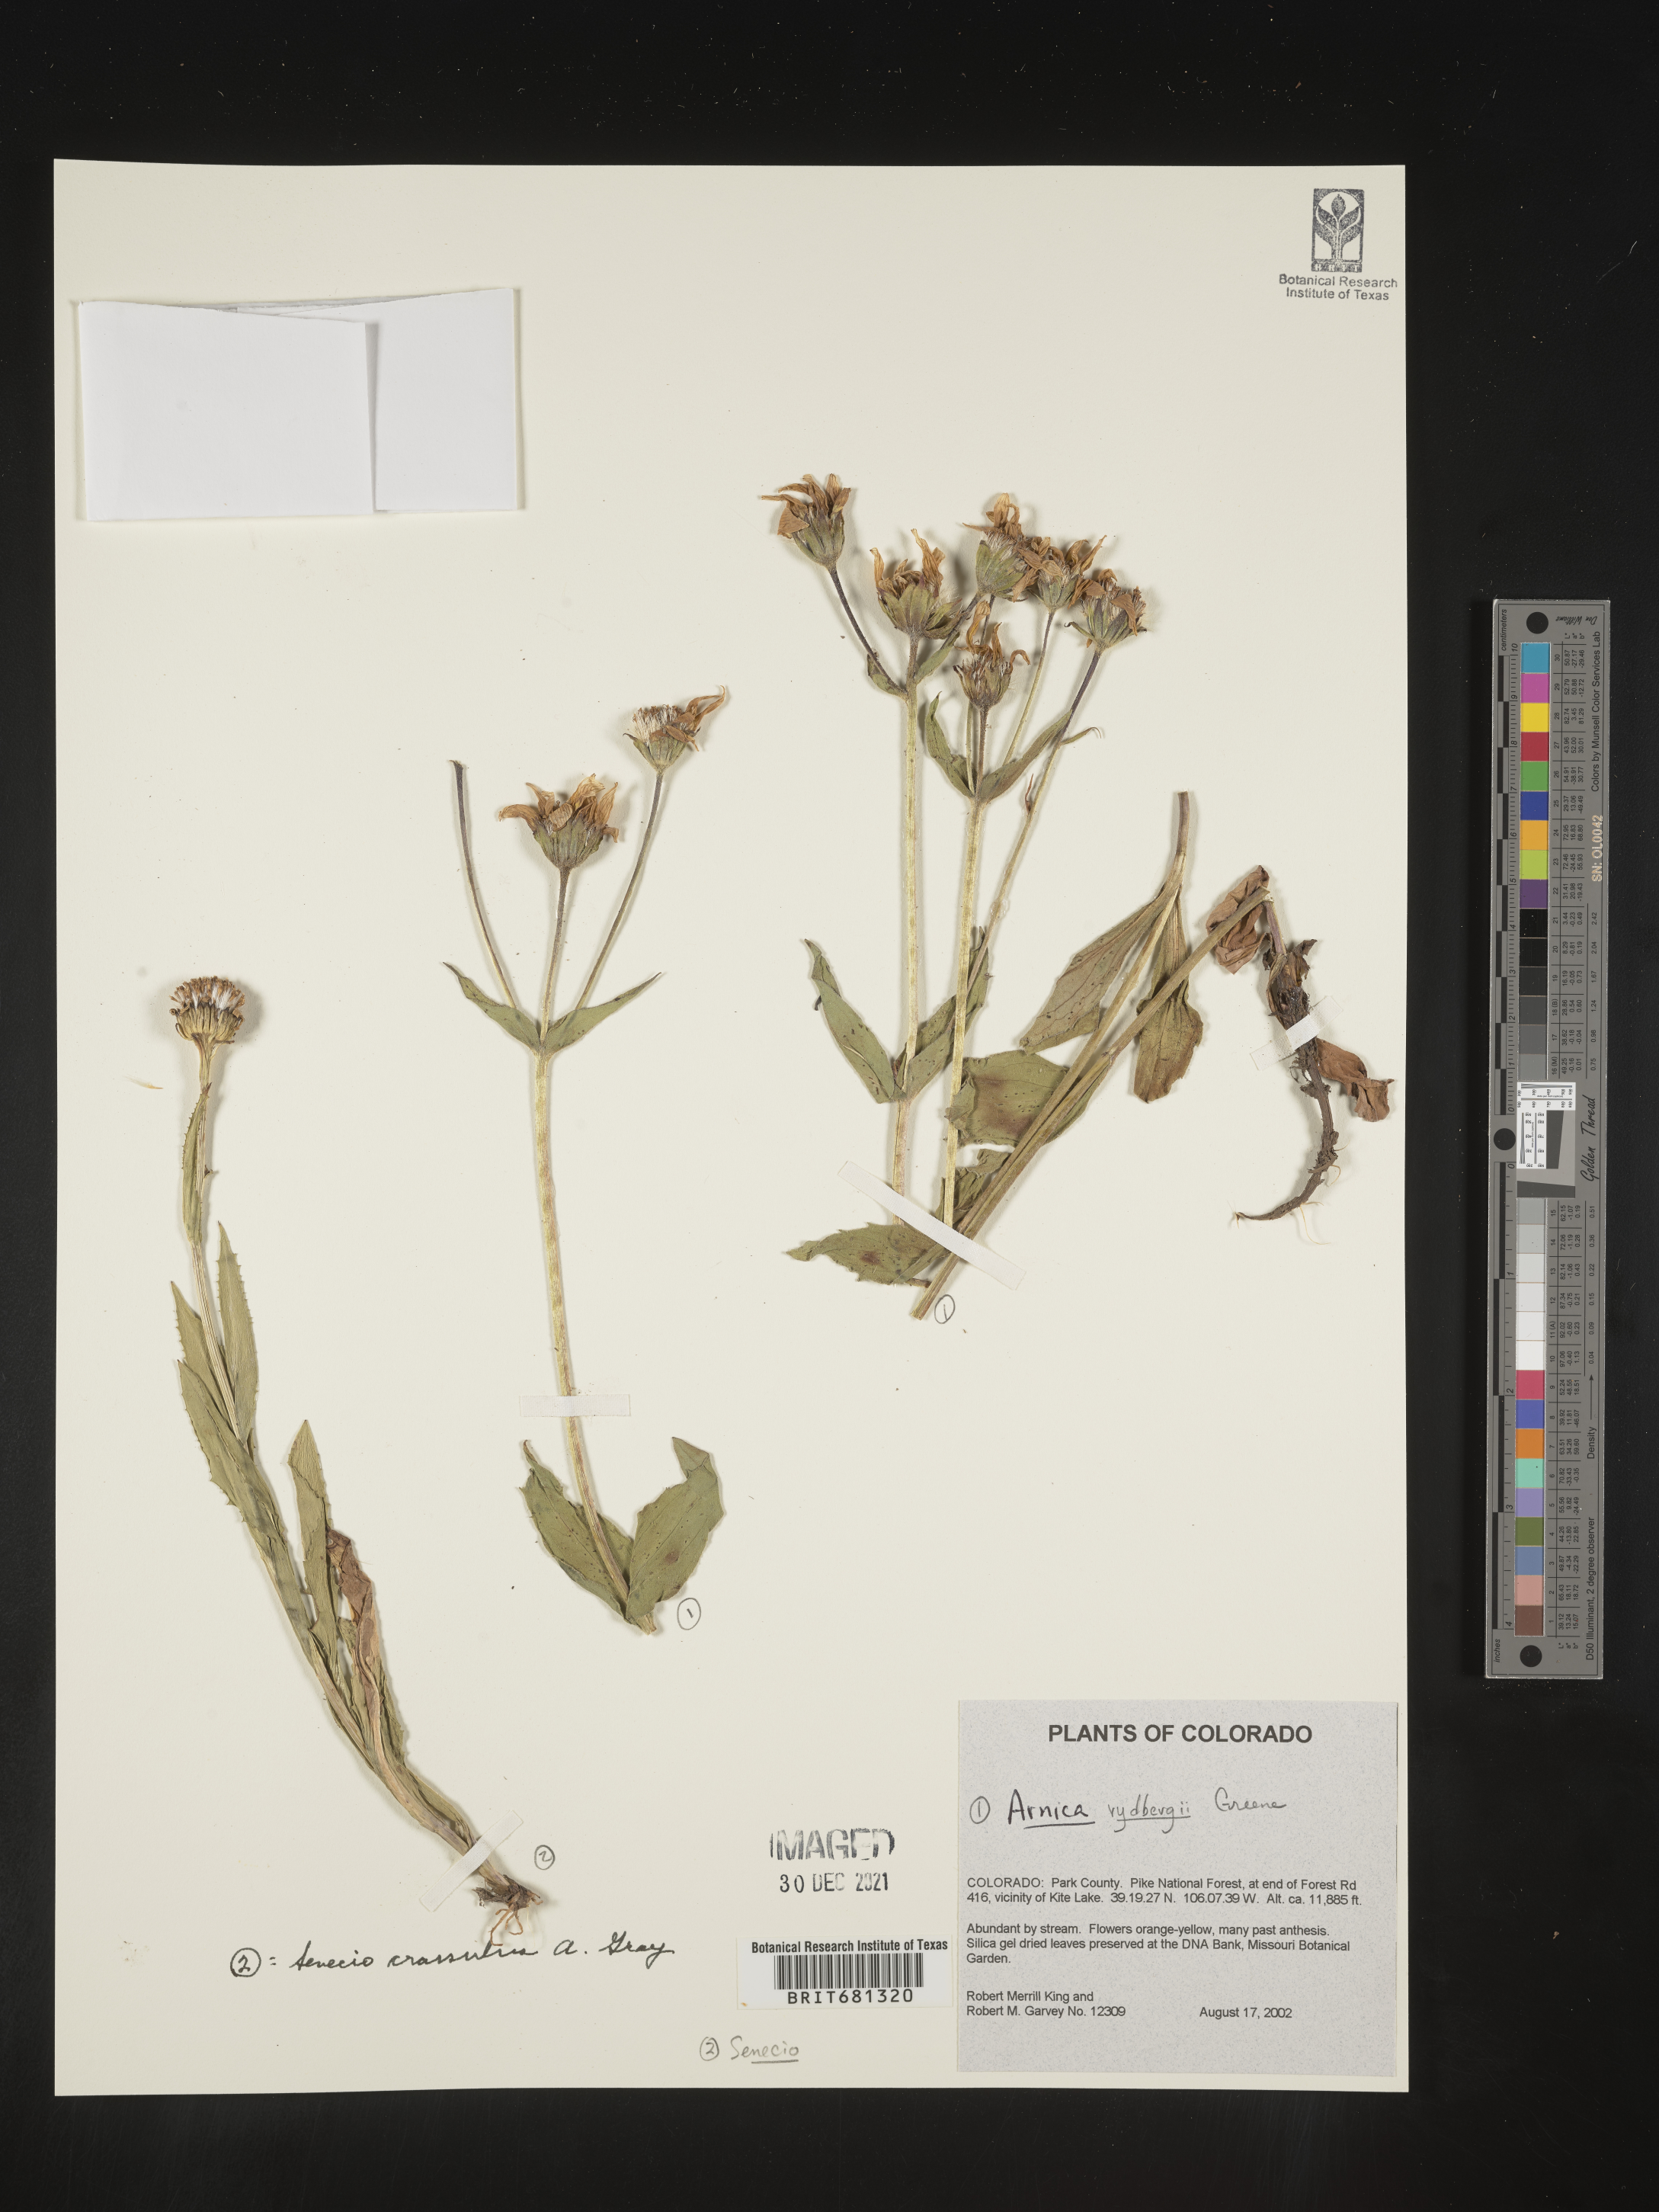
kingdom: Plantae
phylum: Tracheophyta
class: Magnoliopsida
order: Asterales
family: Asteraceae
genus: Arnica
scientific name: Arnica rydbergii
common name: Rydberg's arnica
